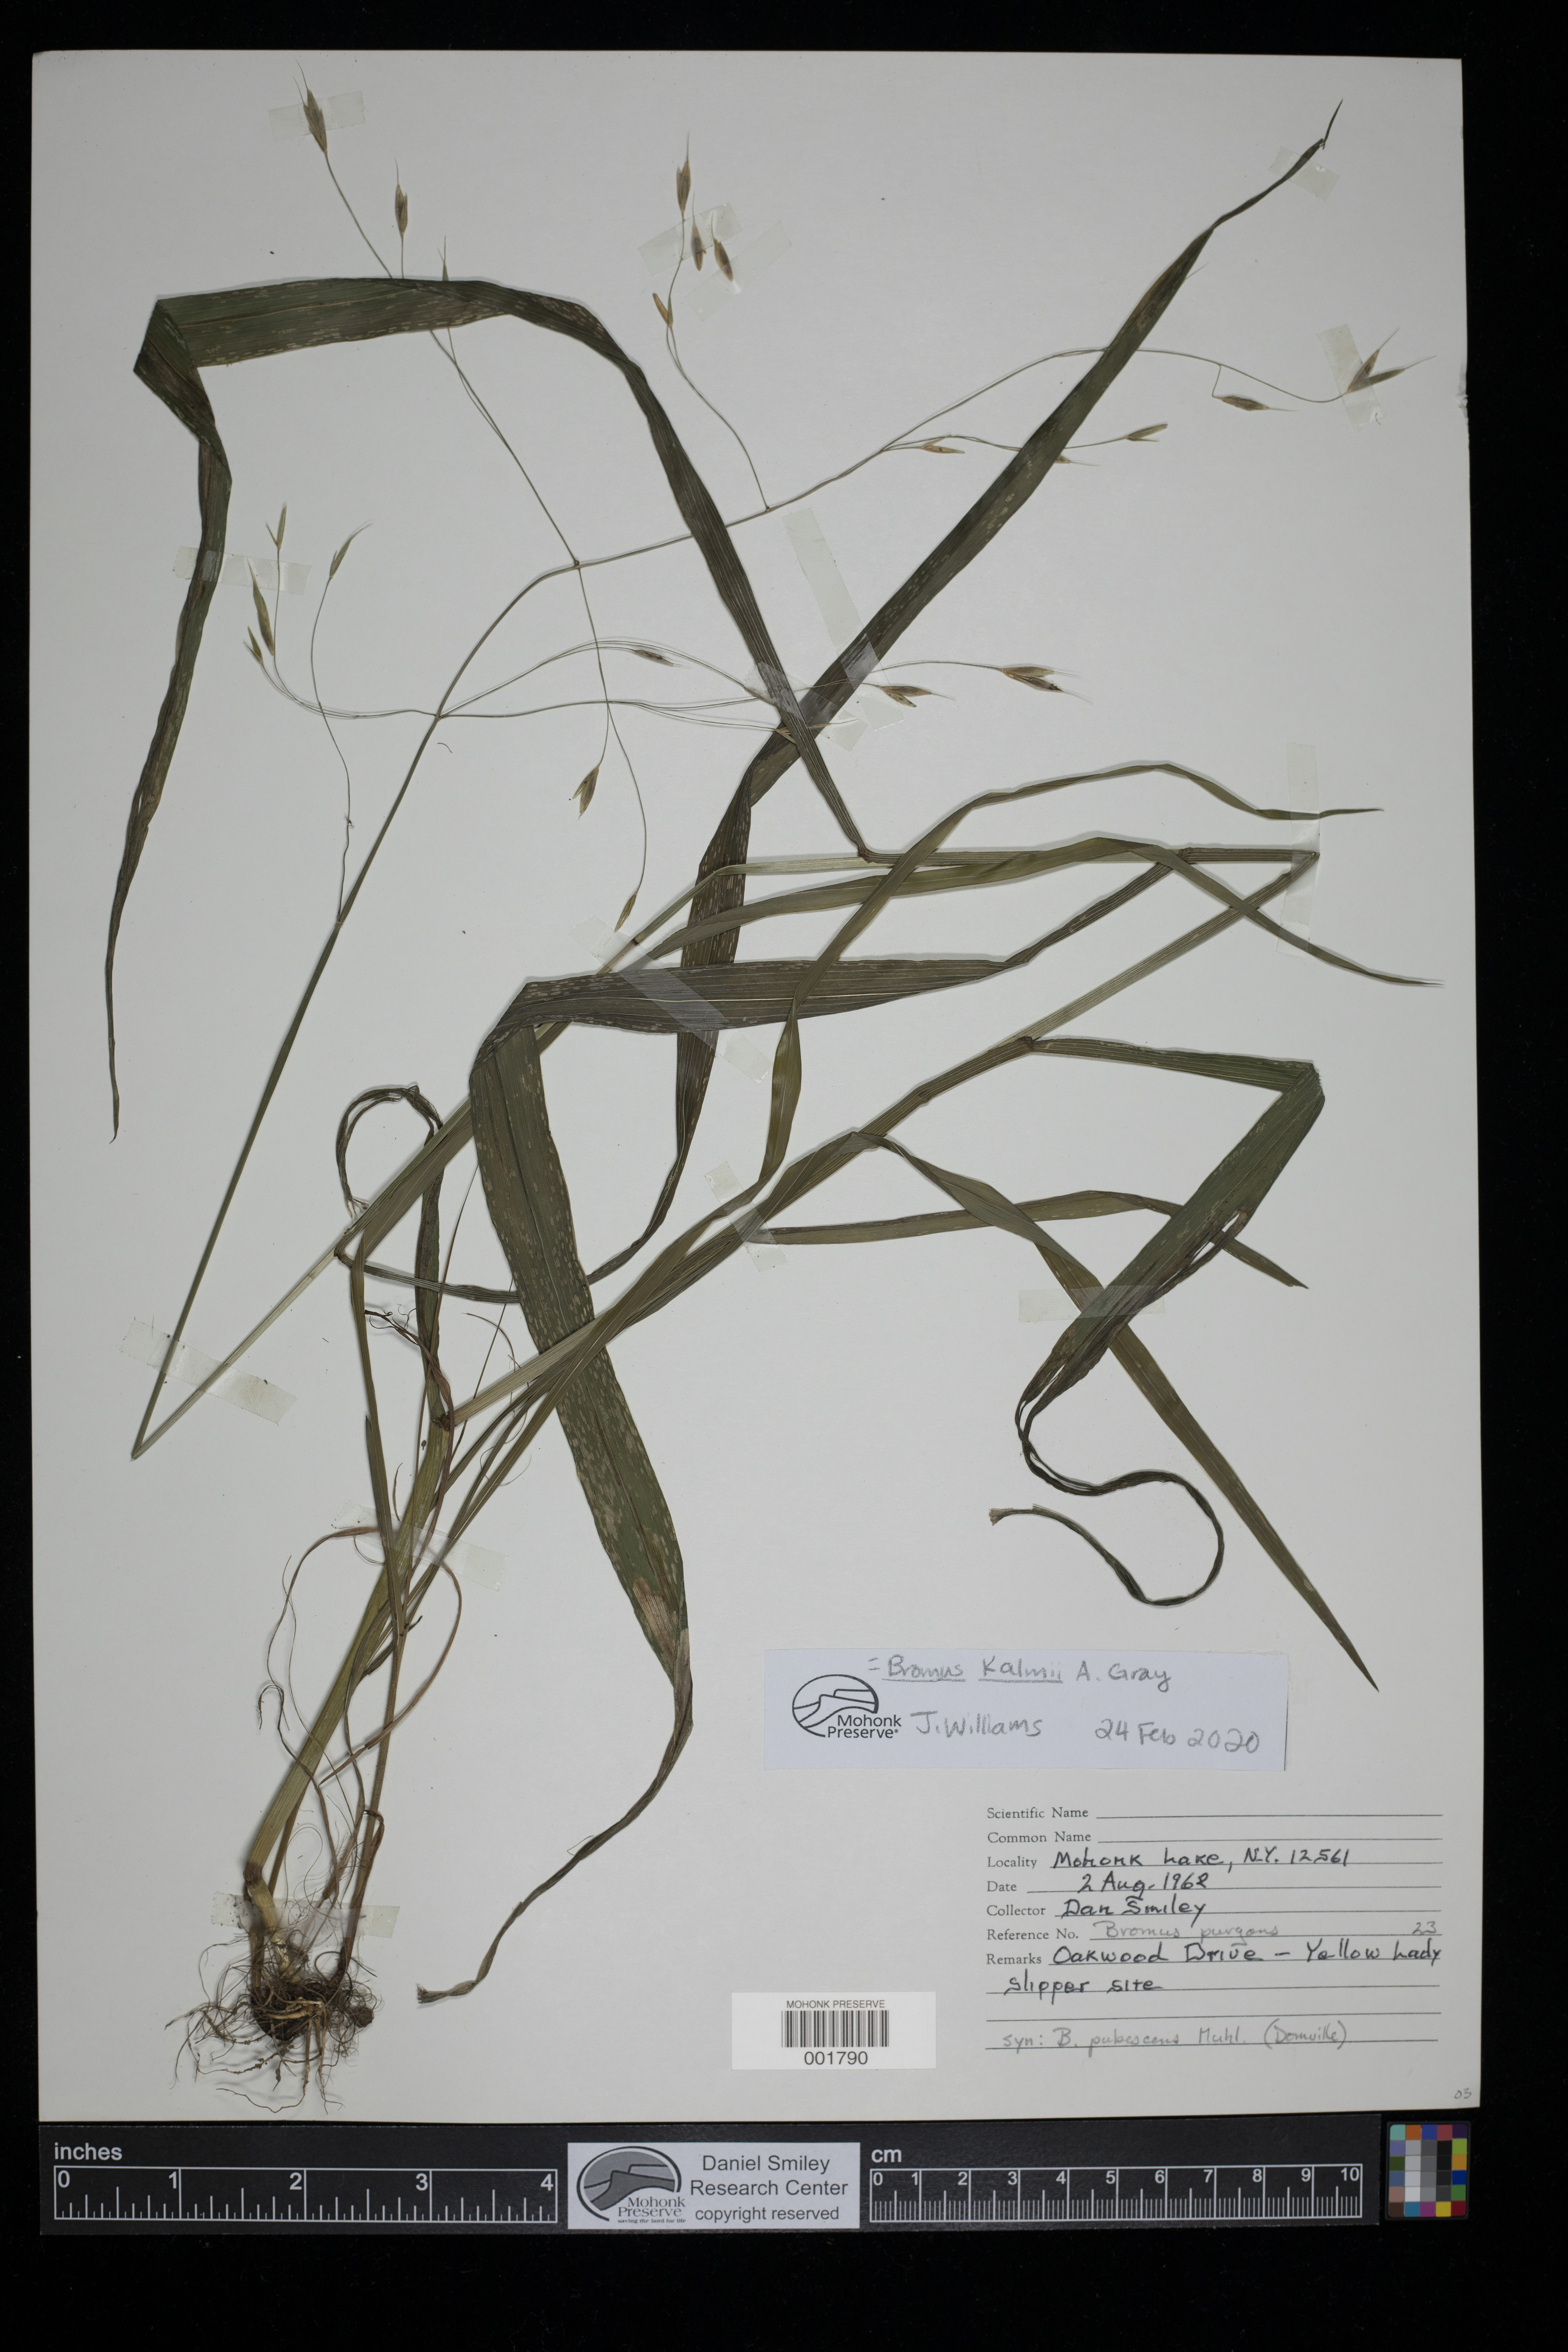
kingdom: Plantae
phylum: Tracheophyta
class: Liliopsida
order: Poales
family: Poaceae
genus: Bromus
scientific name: Bromus kalmii
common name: Kalm brome
